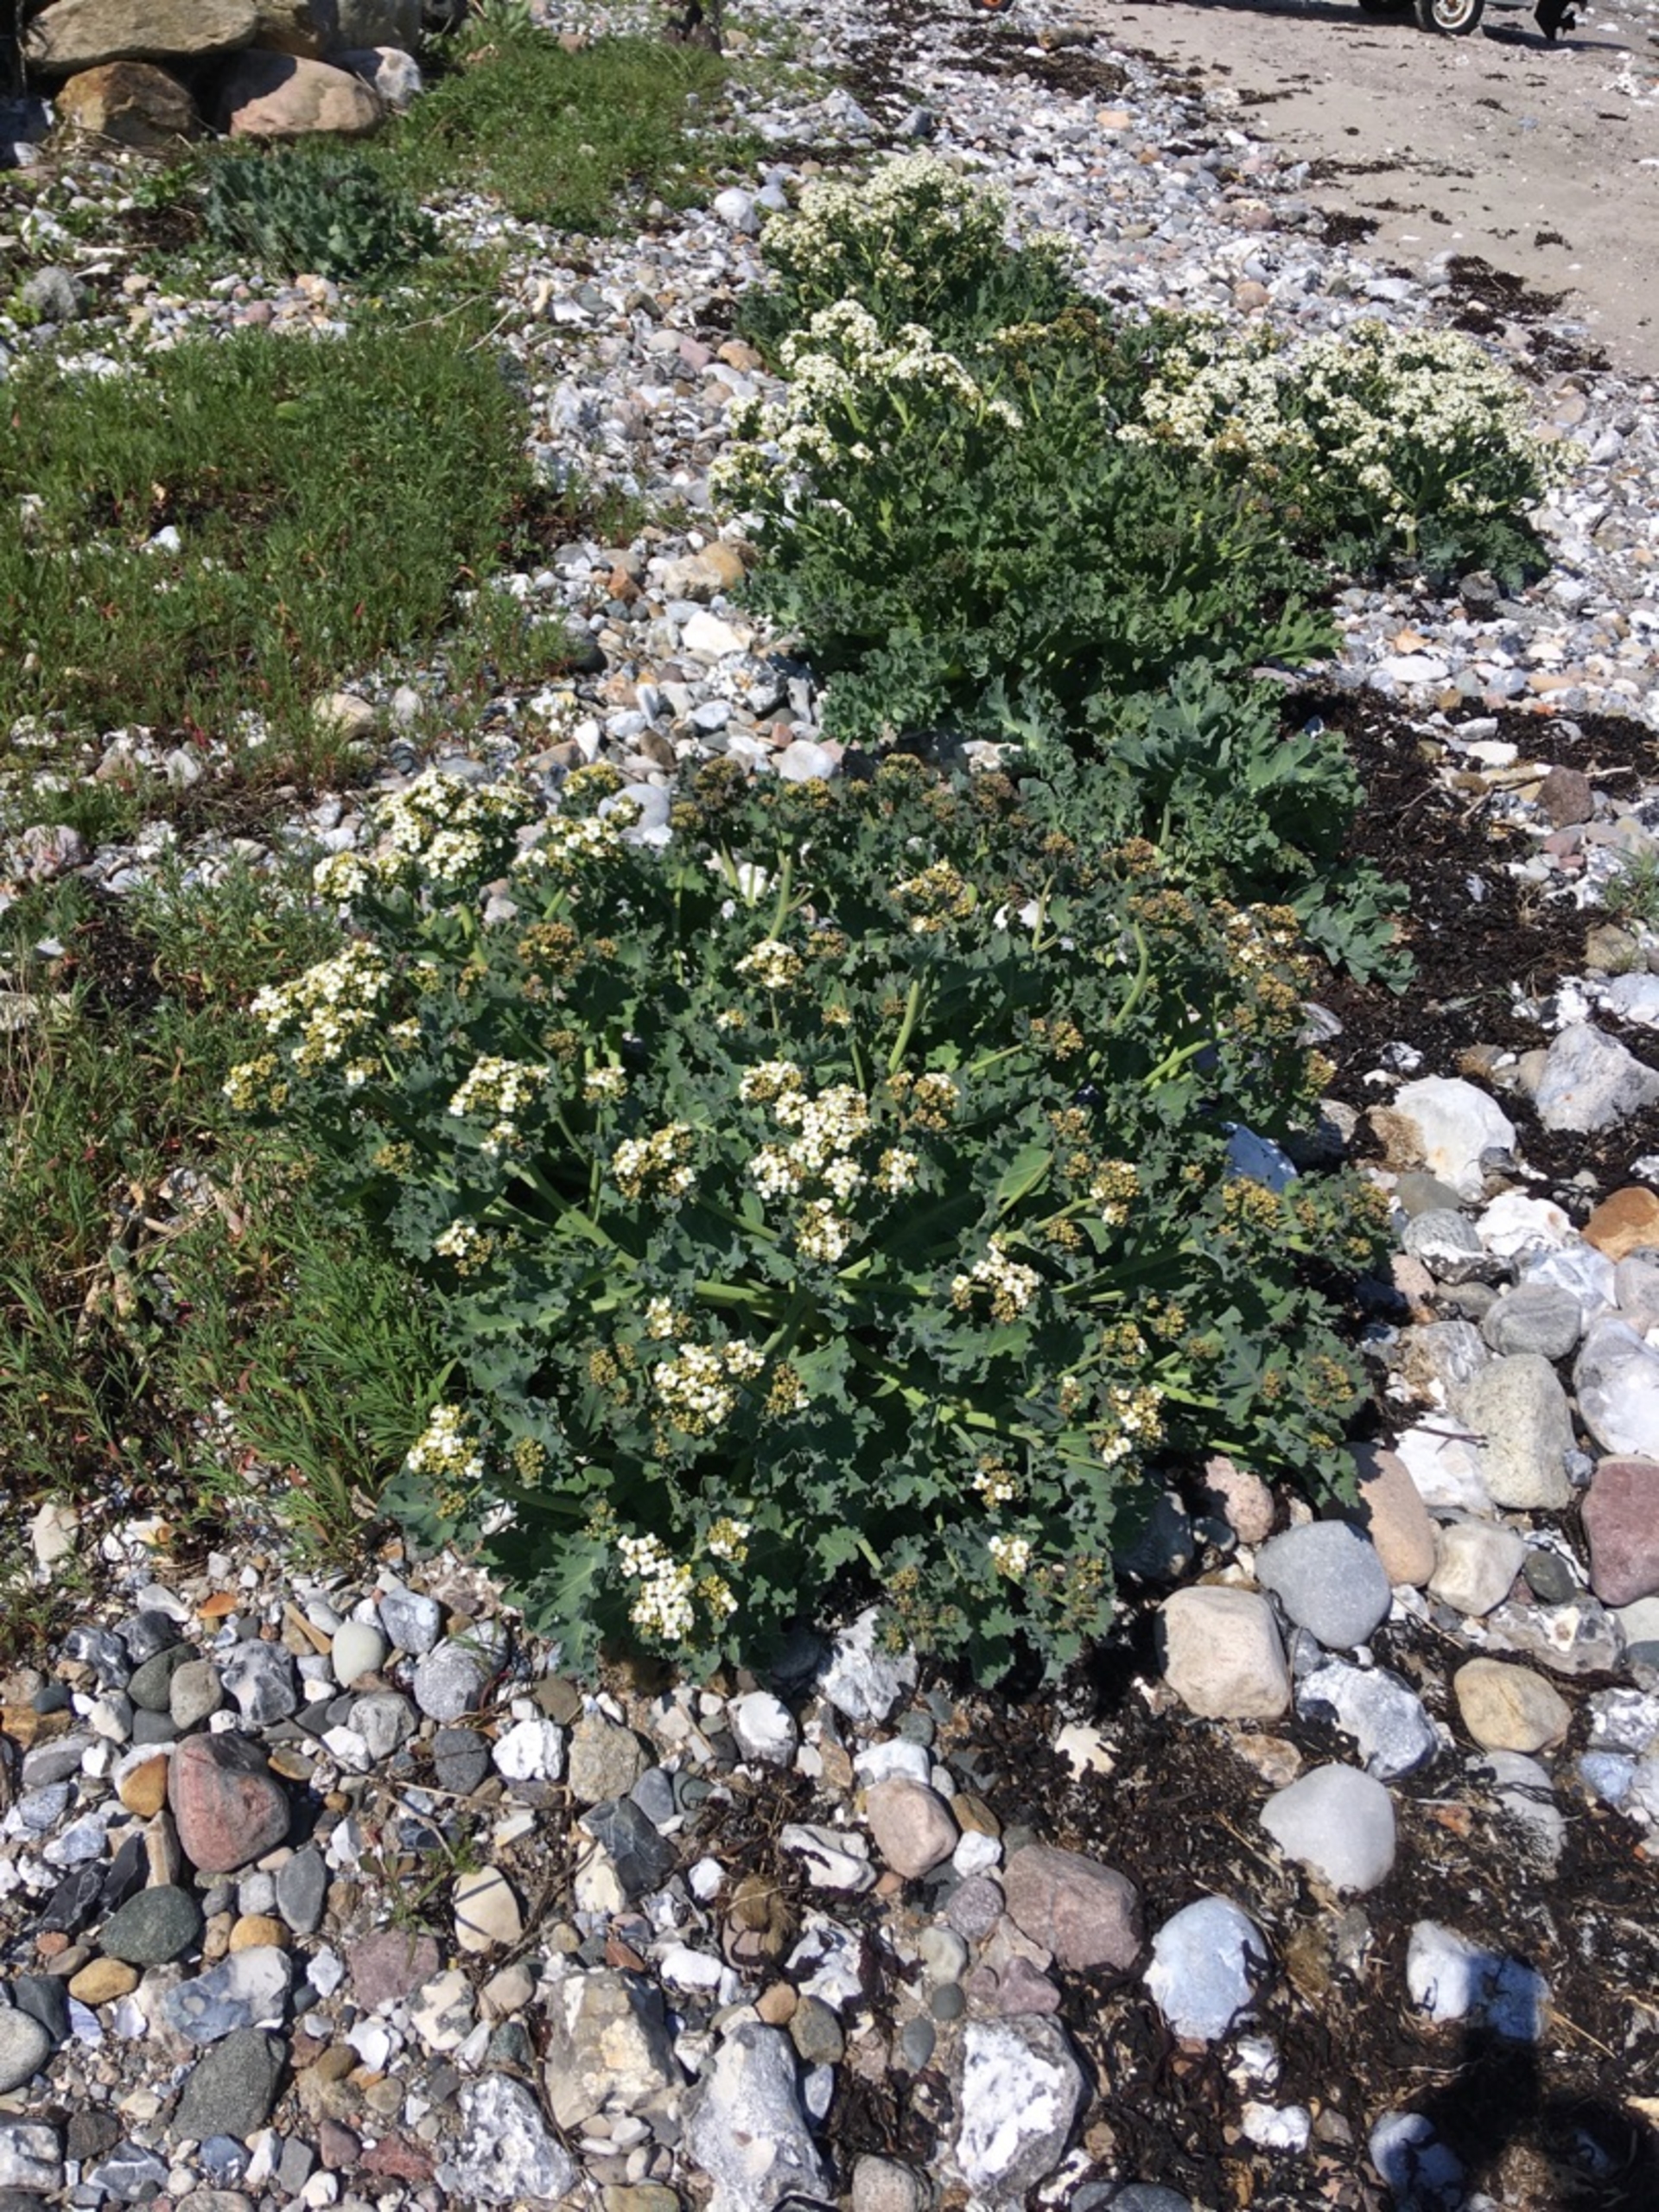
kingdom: Plantae
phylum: Tracheophyta
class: Magnoliopsida
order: Brassicales
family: Brassicaceae
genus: Crambe
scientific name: Crambe maritima
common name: Strandkål
